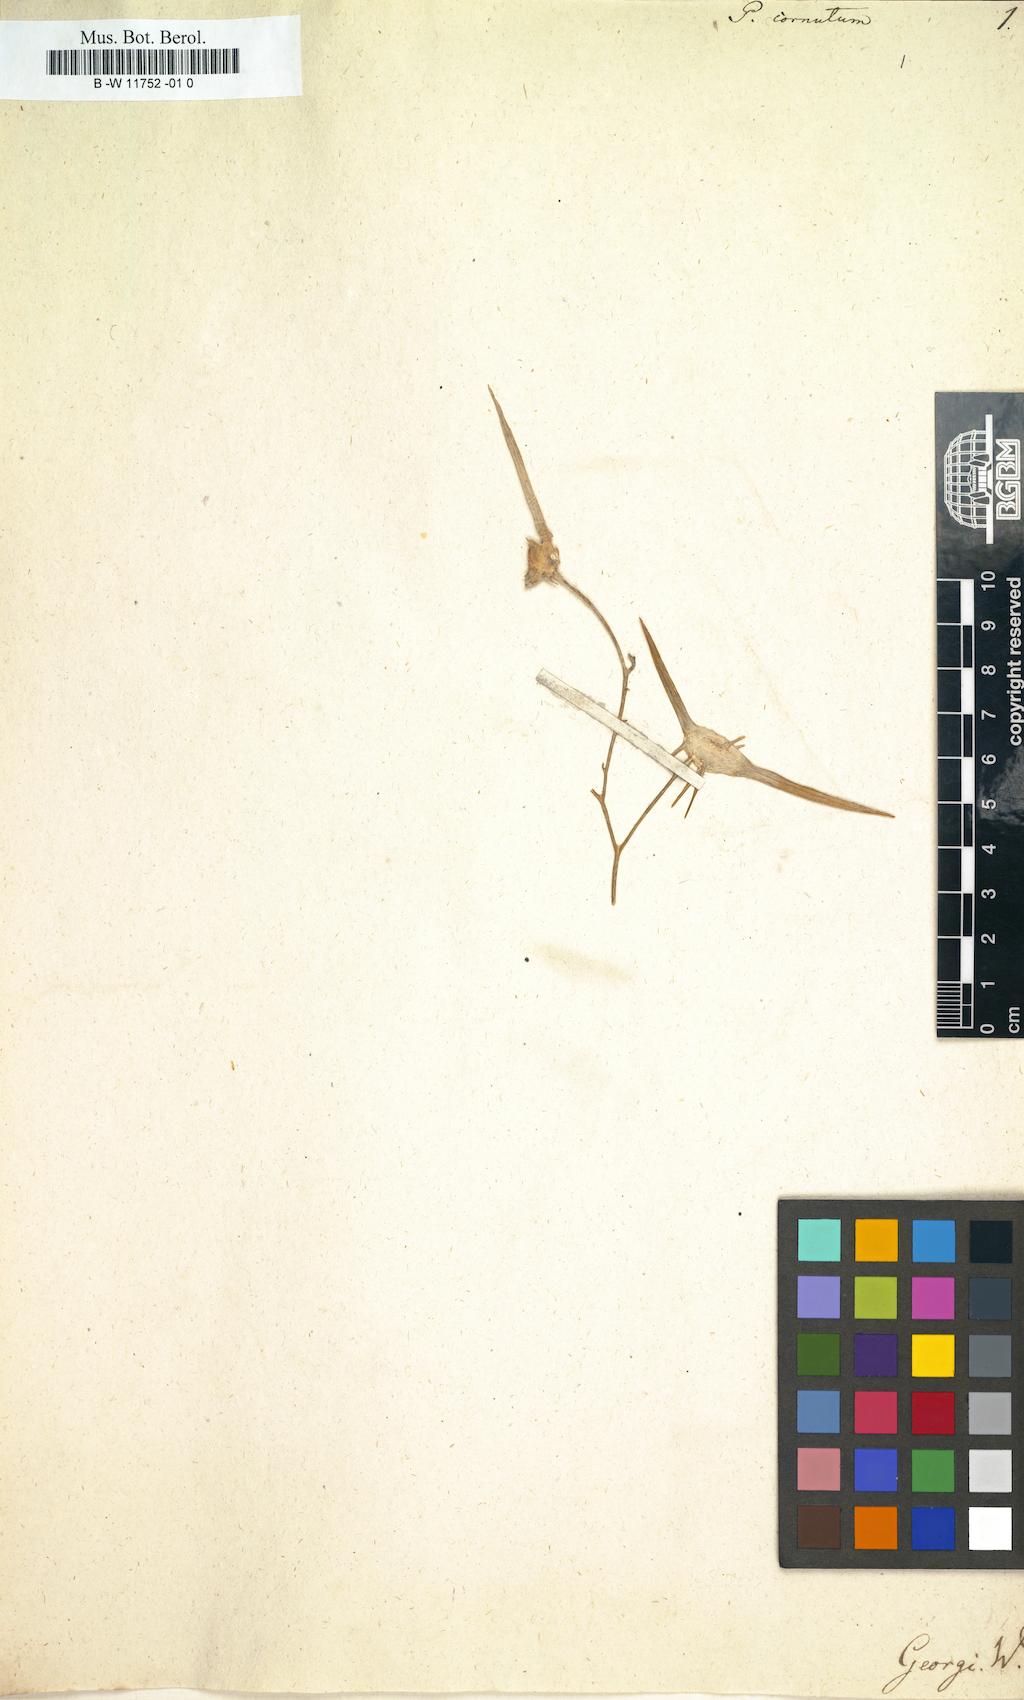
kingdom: Plantae
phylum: Tracheophyta
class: Magnoliopsida
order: Brassicales
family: Brassicaceae
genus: Pugionium
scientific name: Pugionium cornutum
